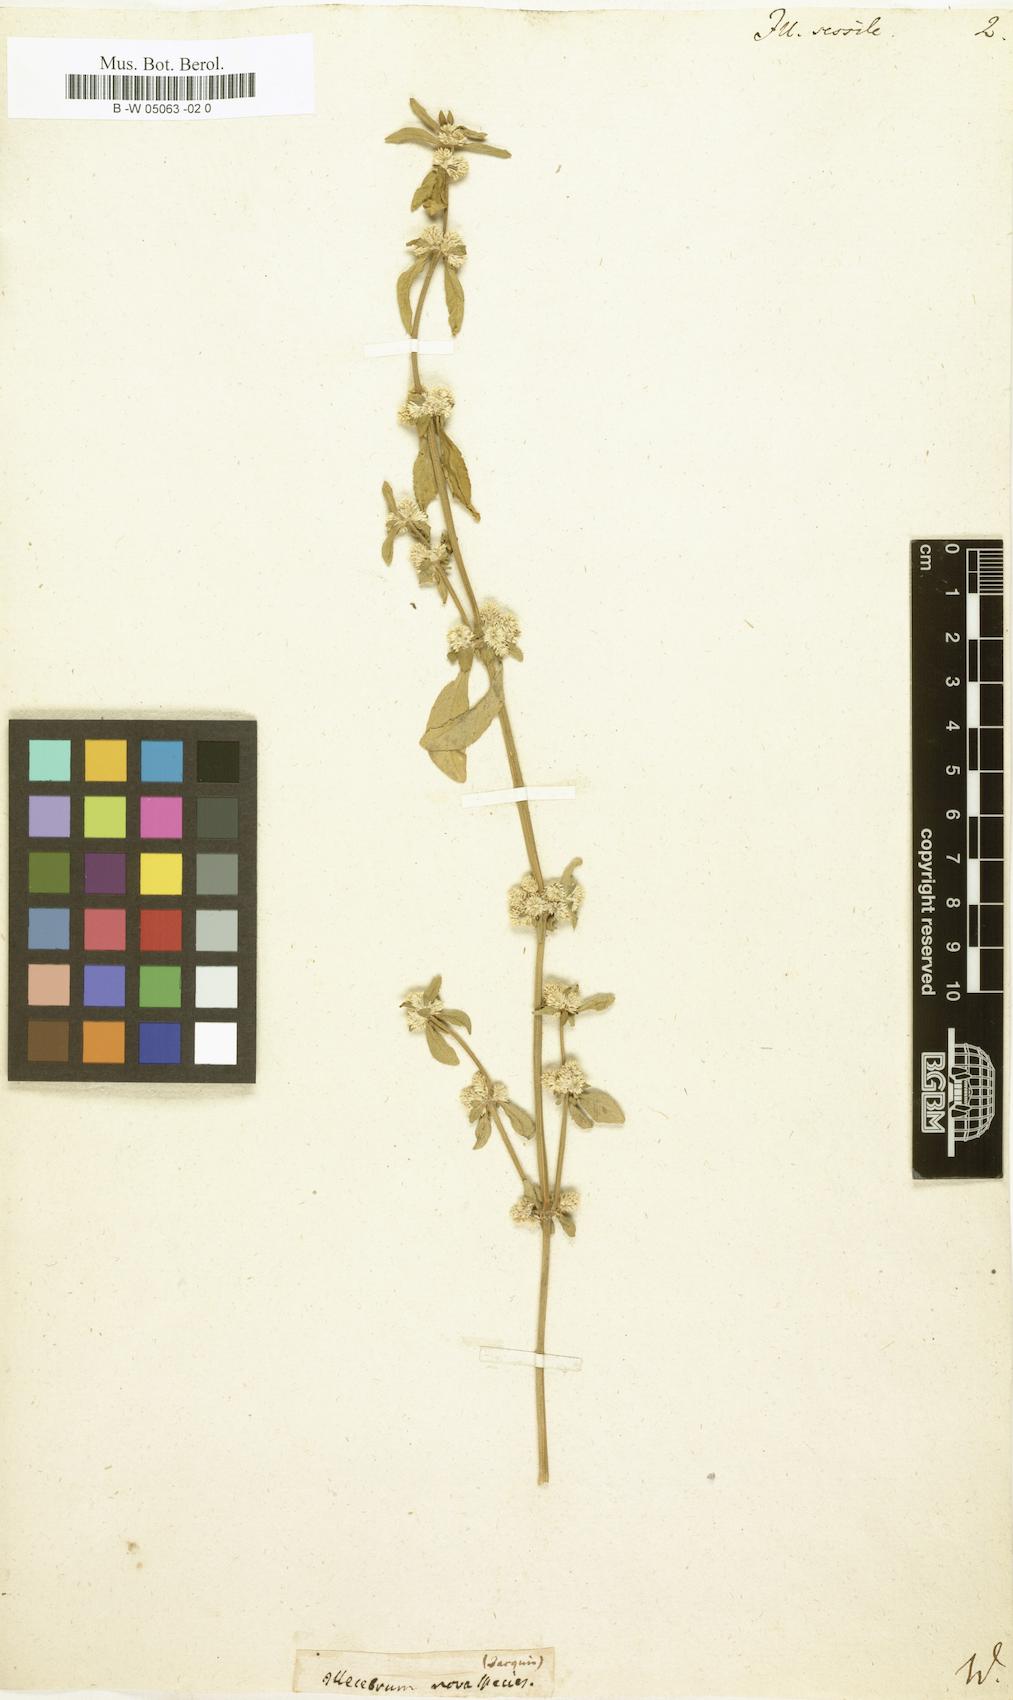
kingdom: Plantae
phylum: Tracheophyta
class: Magnoliopsida
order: Caryophyllales
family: Amaranthaceae
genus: Alternanthera
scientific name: Alternanthera sessilis
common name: Sessile joyweed
